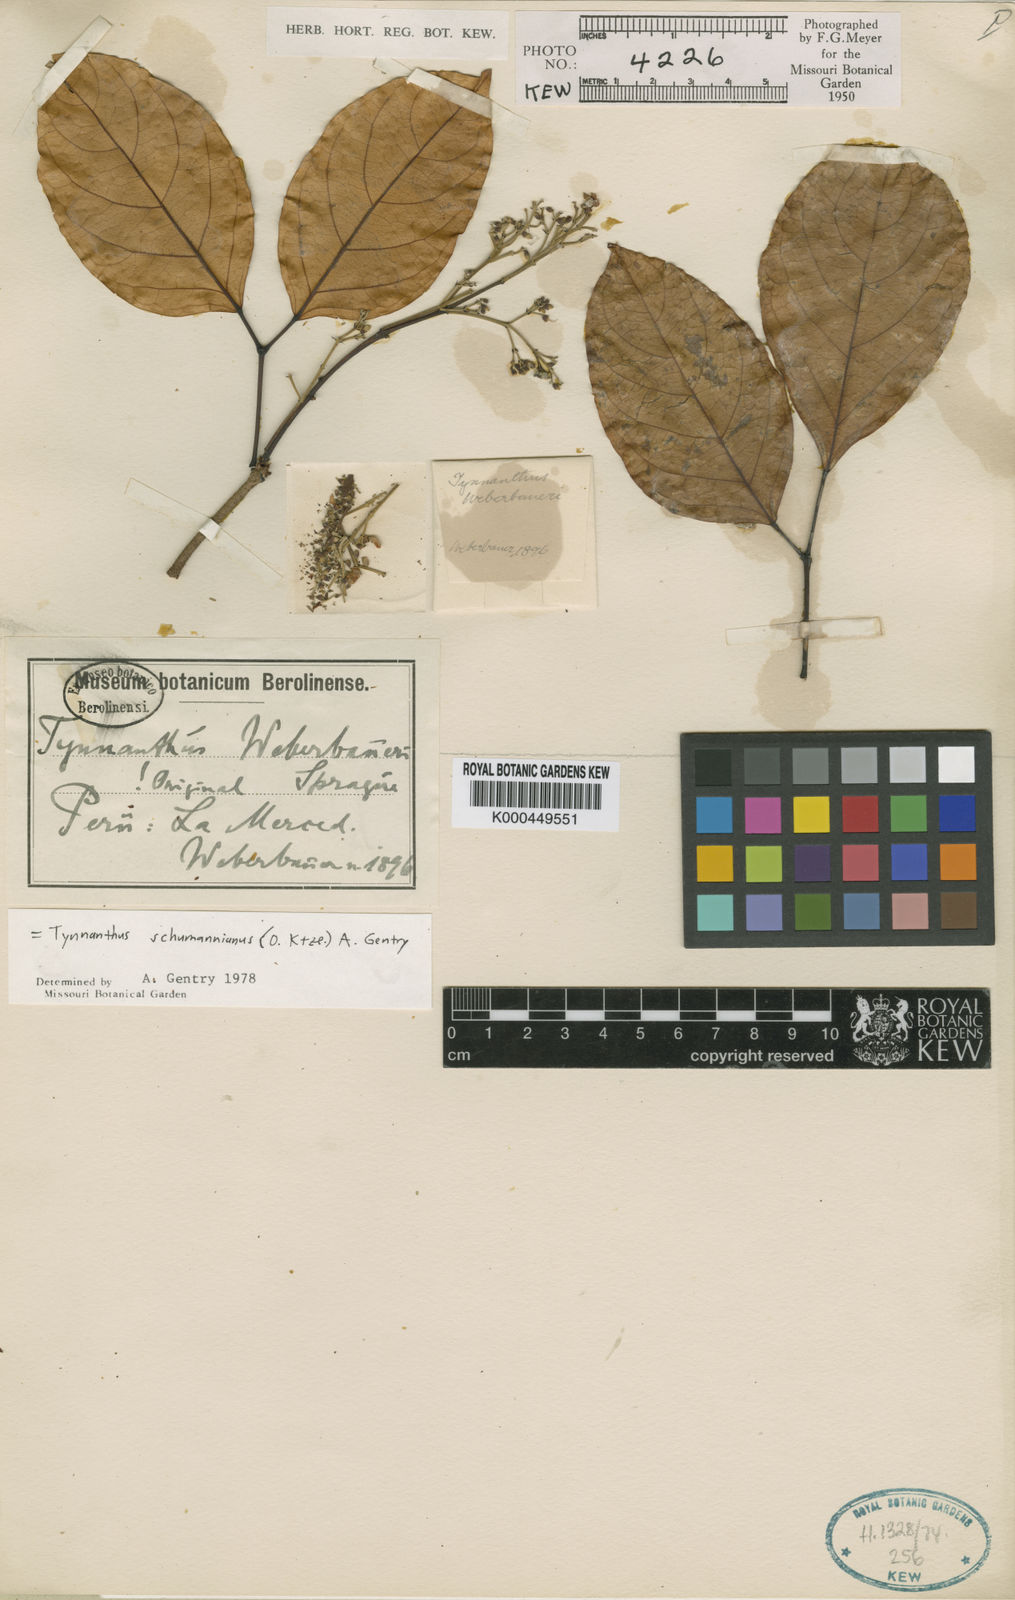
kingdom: Plantae
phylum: Tracheophyta
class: Magnoliopsida
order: Lamiales
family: Bignoniaceae
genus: Tynanthus
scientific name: Tynanthus schumannianus
